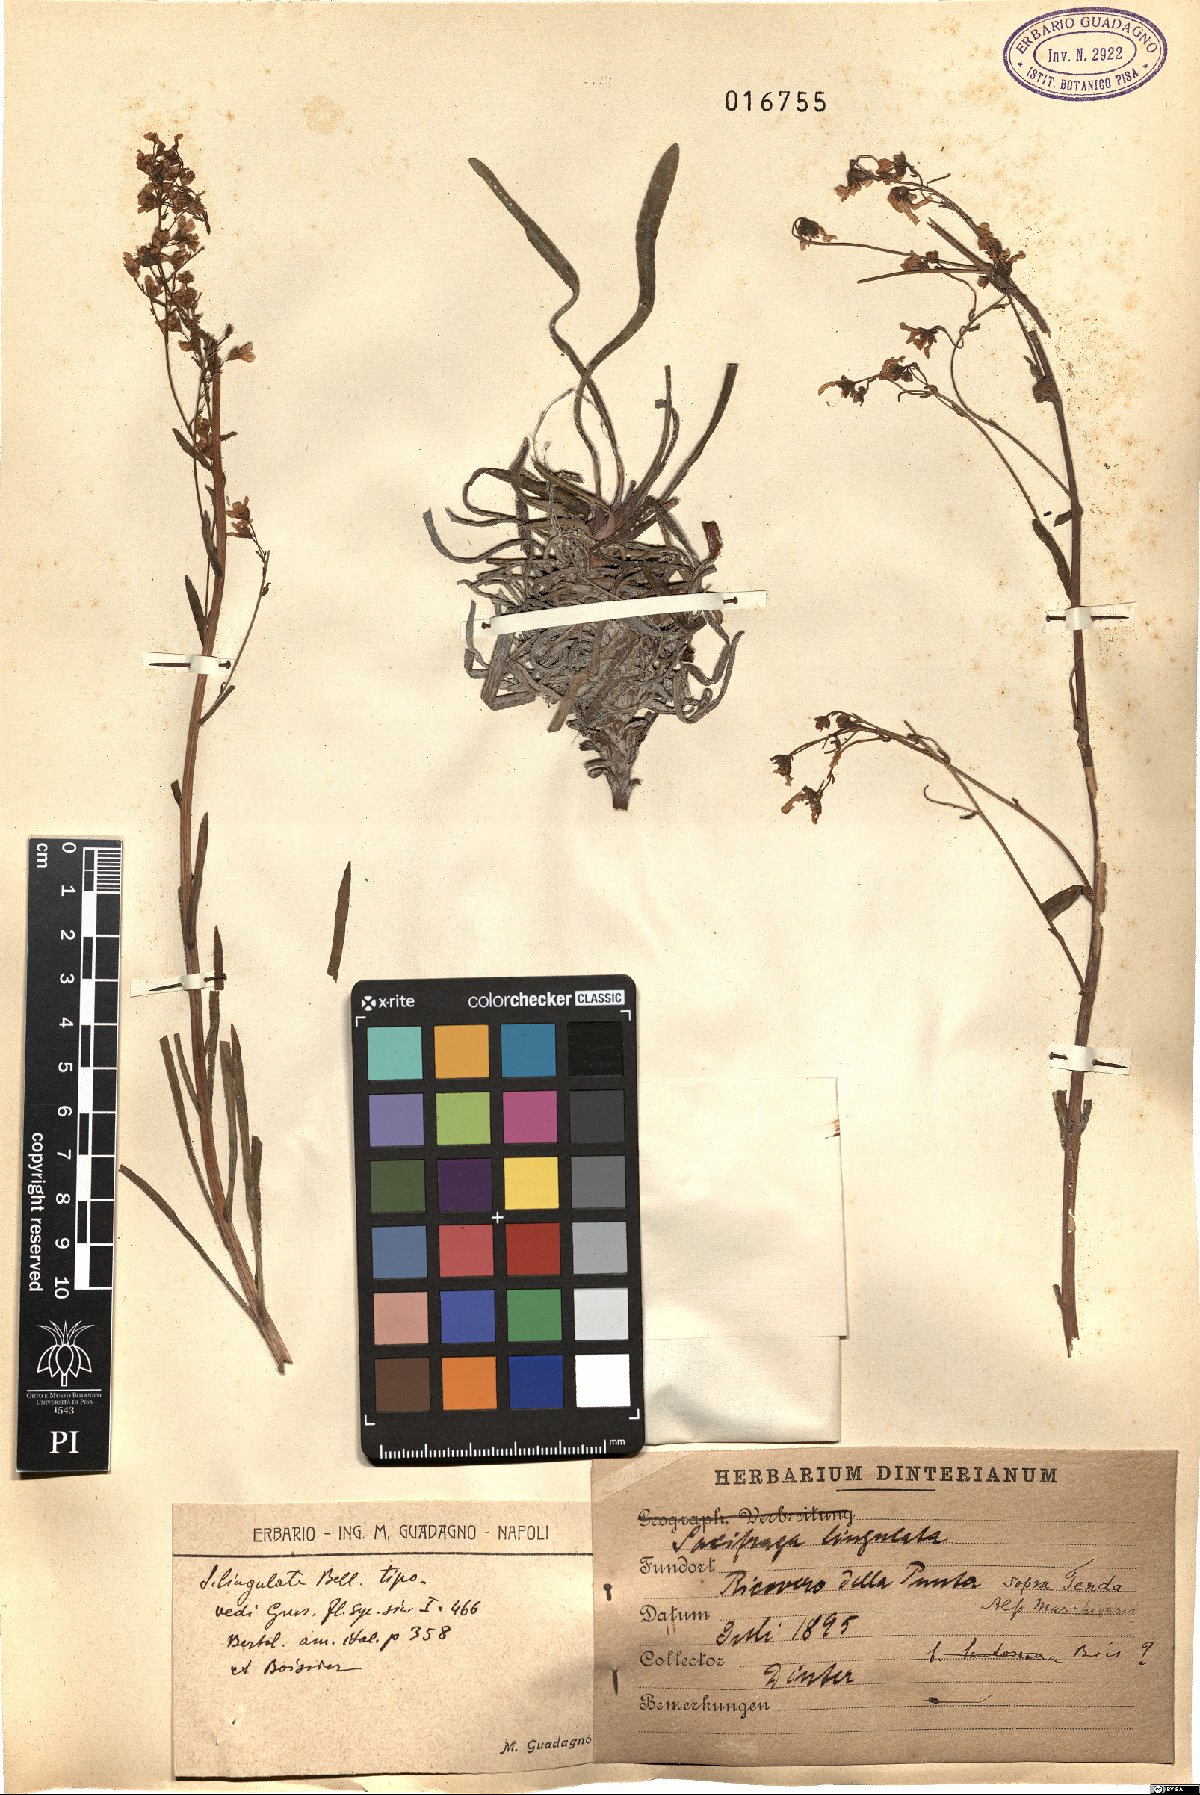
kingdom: Plantae
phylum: Tracheophyta
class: Magnoliopsida
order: Saxifragales
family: Saxifragaceae
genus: Saxifraga
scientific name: Saxifraga callosa
